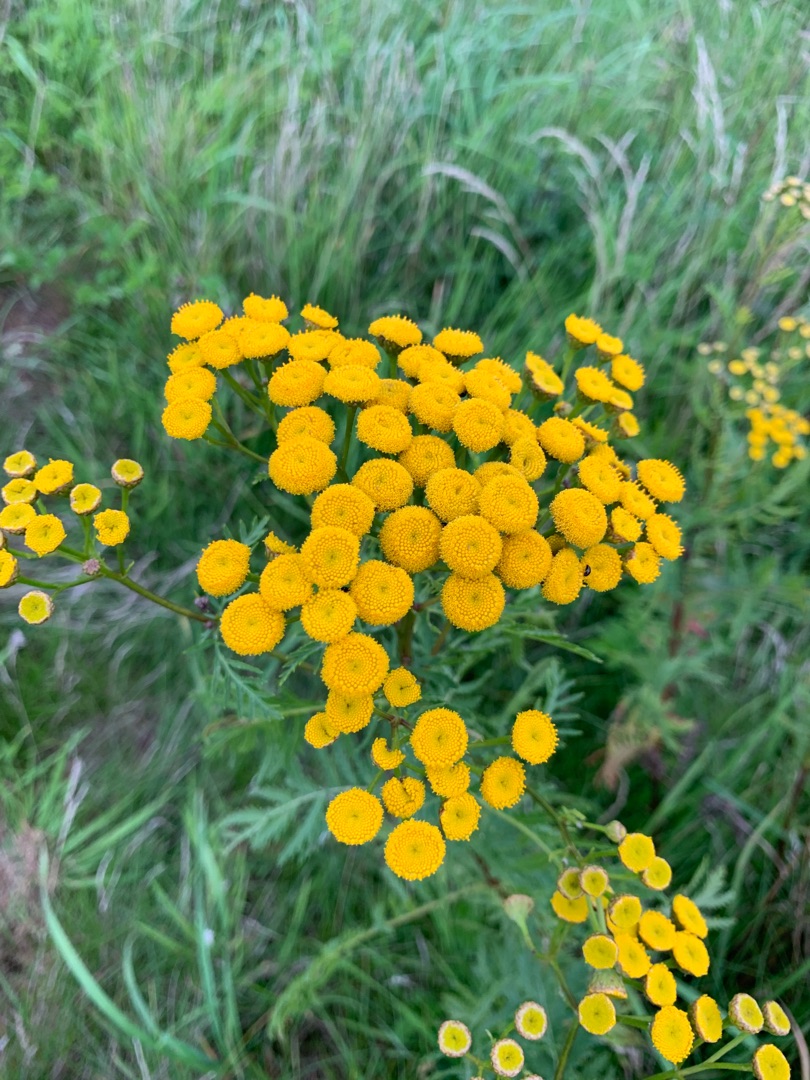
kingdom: Plantae
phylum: Tracheophyta
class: Magnoliopsida
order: Asterales
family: Asteraceae
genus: Tanacetum
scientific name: Tanacetum vulgare
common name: Rejnfan
